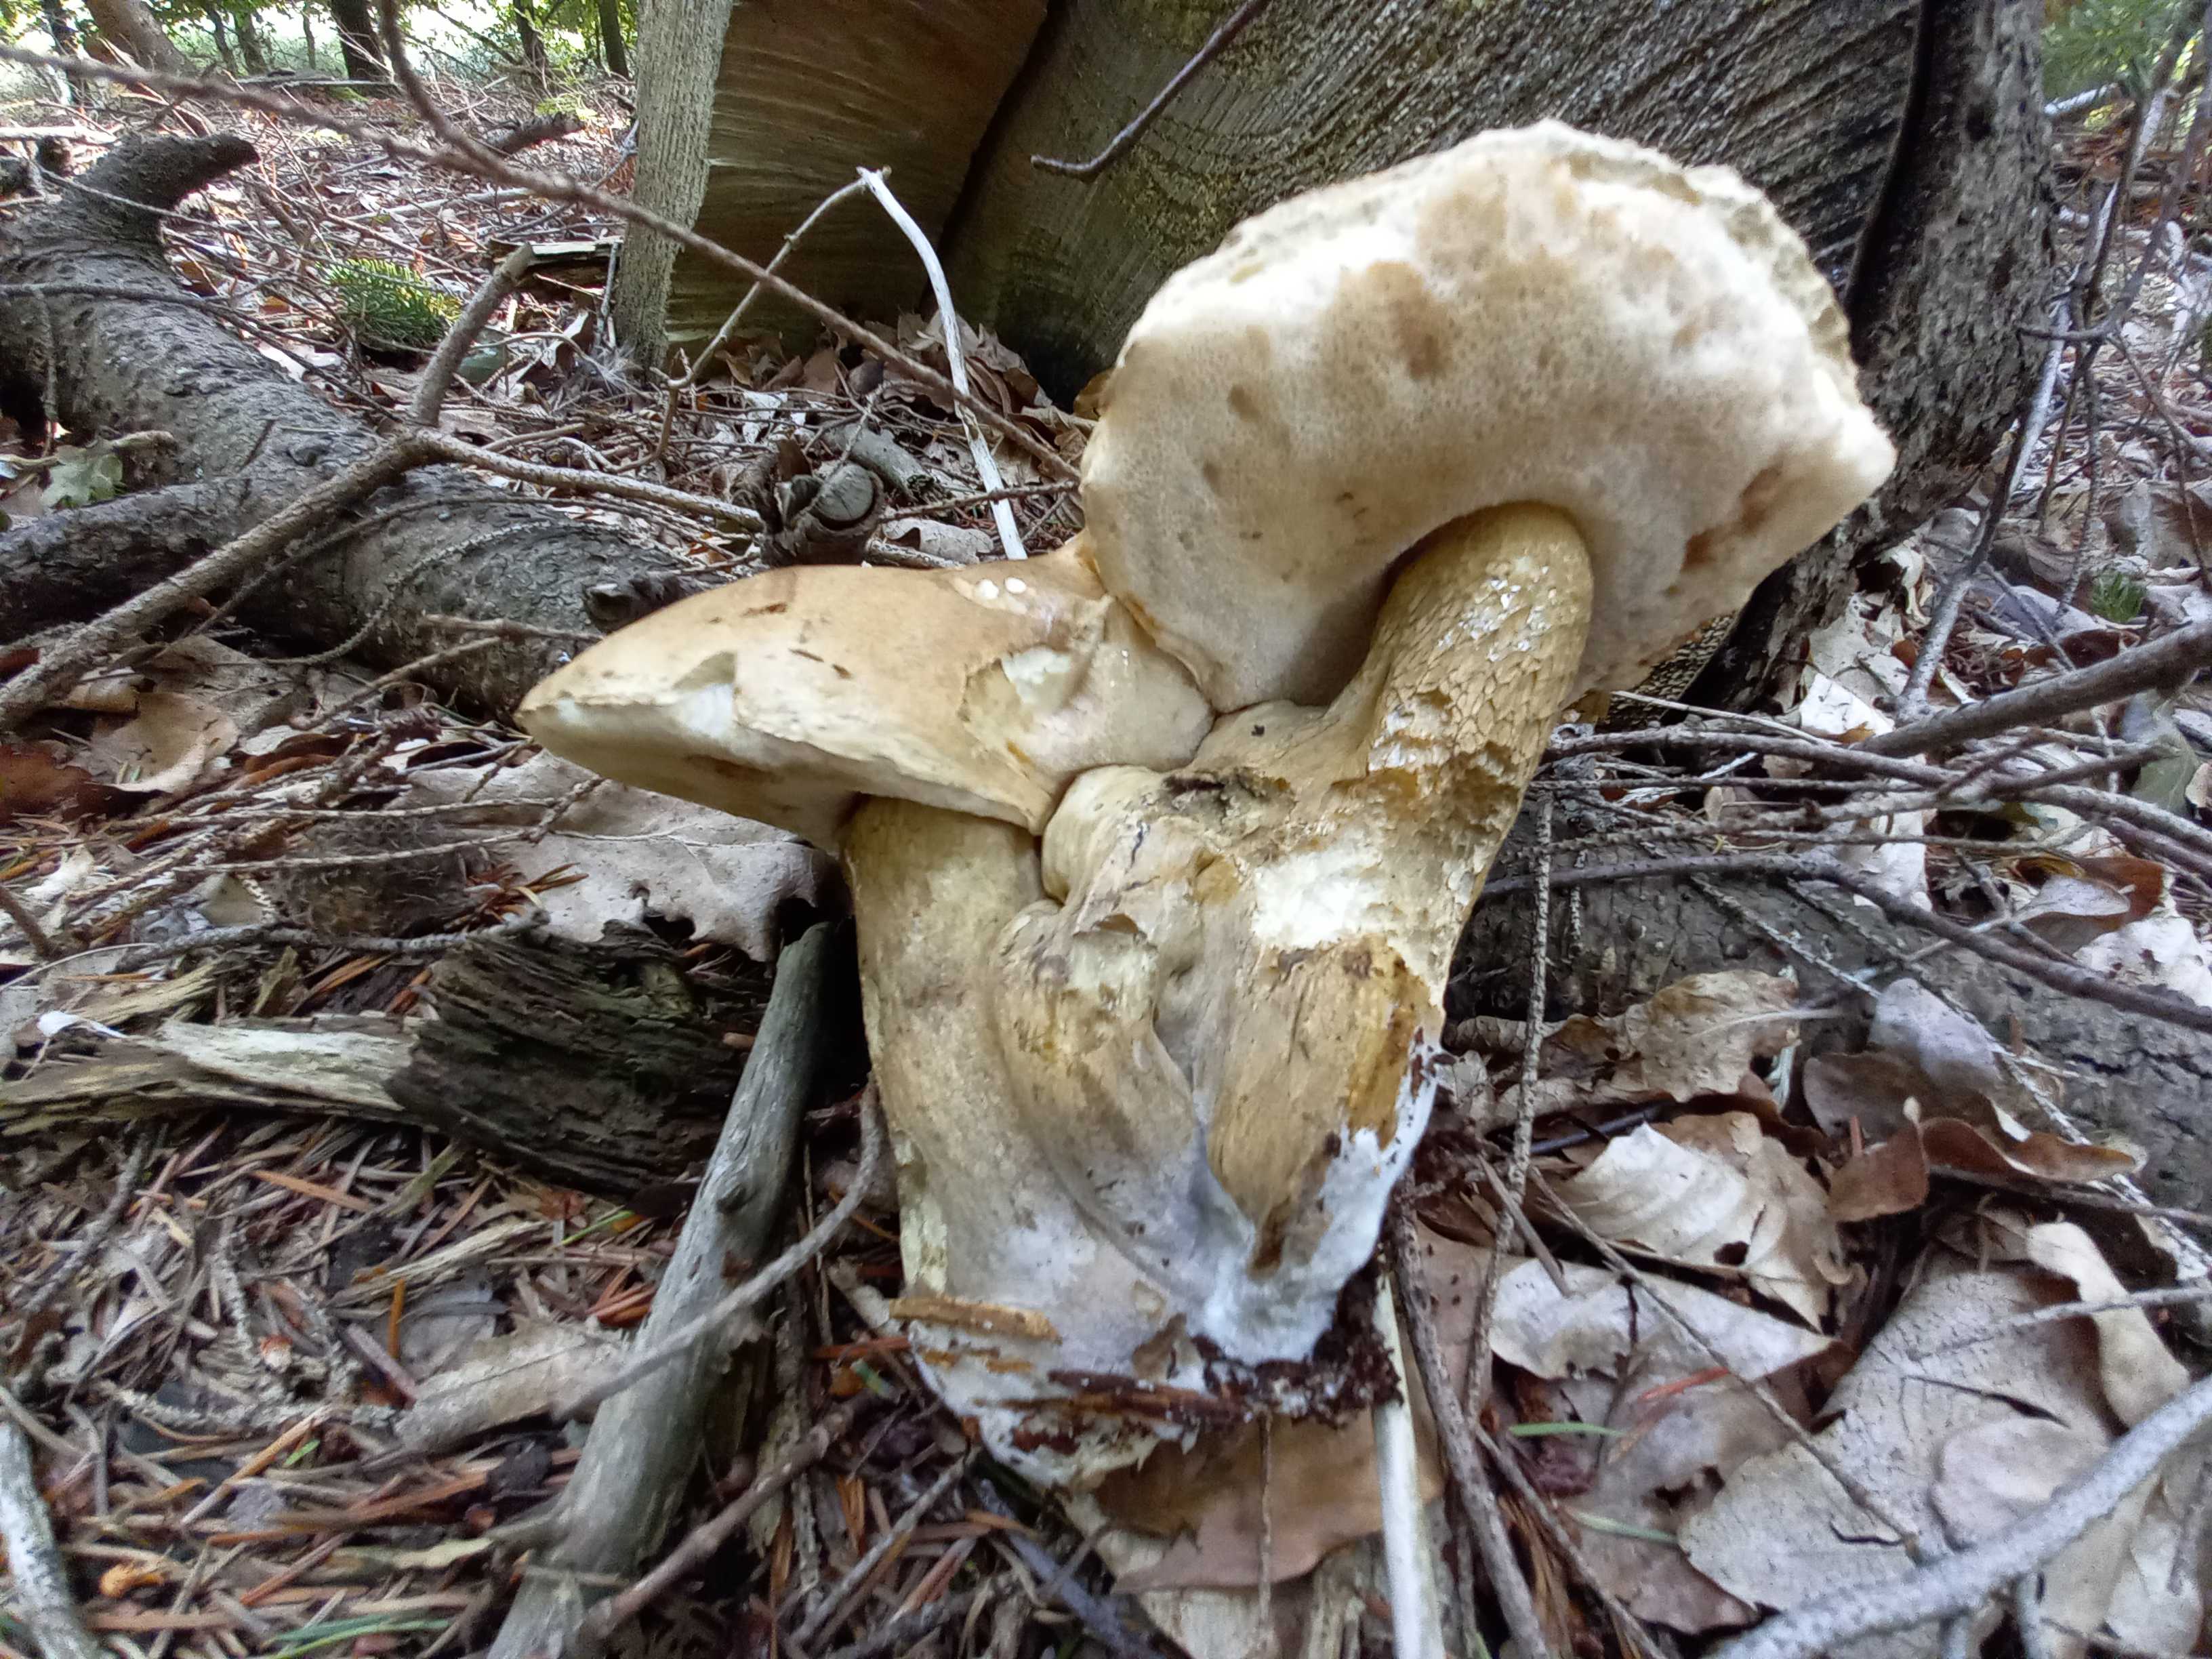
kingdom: Fungi
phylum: Basidiomycota
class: Agaricomycetes
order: Boletales
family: Boletaceae
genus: Tylopilus
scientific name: Tylopilus felleus
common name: galderørhat
